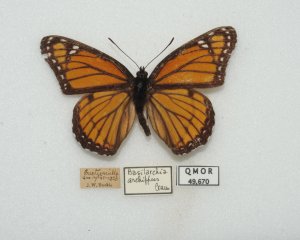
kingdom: Animalia
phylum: Arthropoda
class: Insecta
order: Lepidoptera
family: Nymphalidae
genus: Limenitis
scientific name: Limenitis archippus
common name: Viceroy
